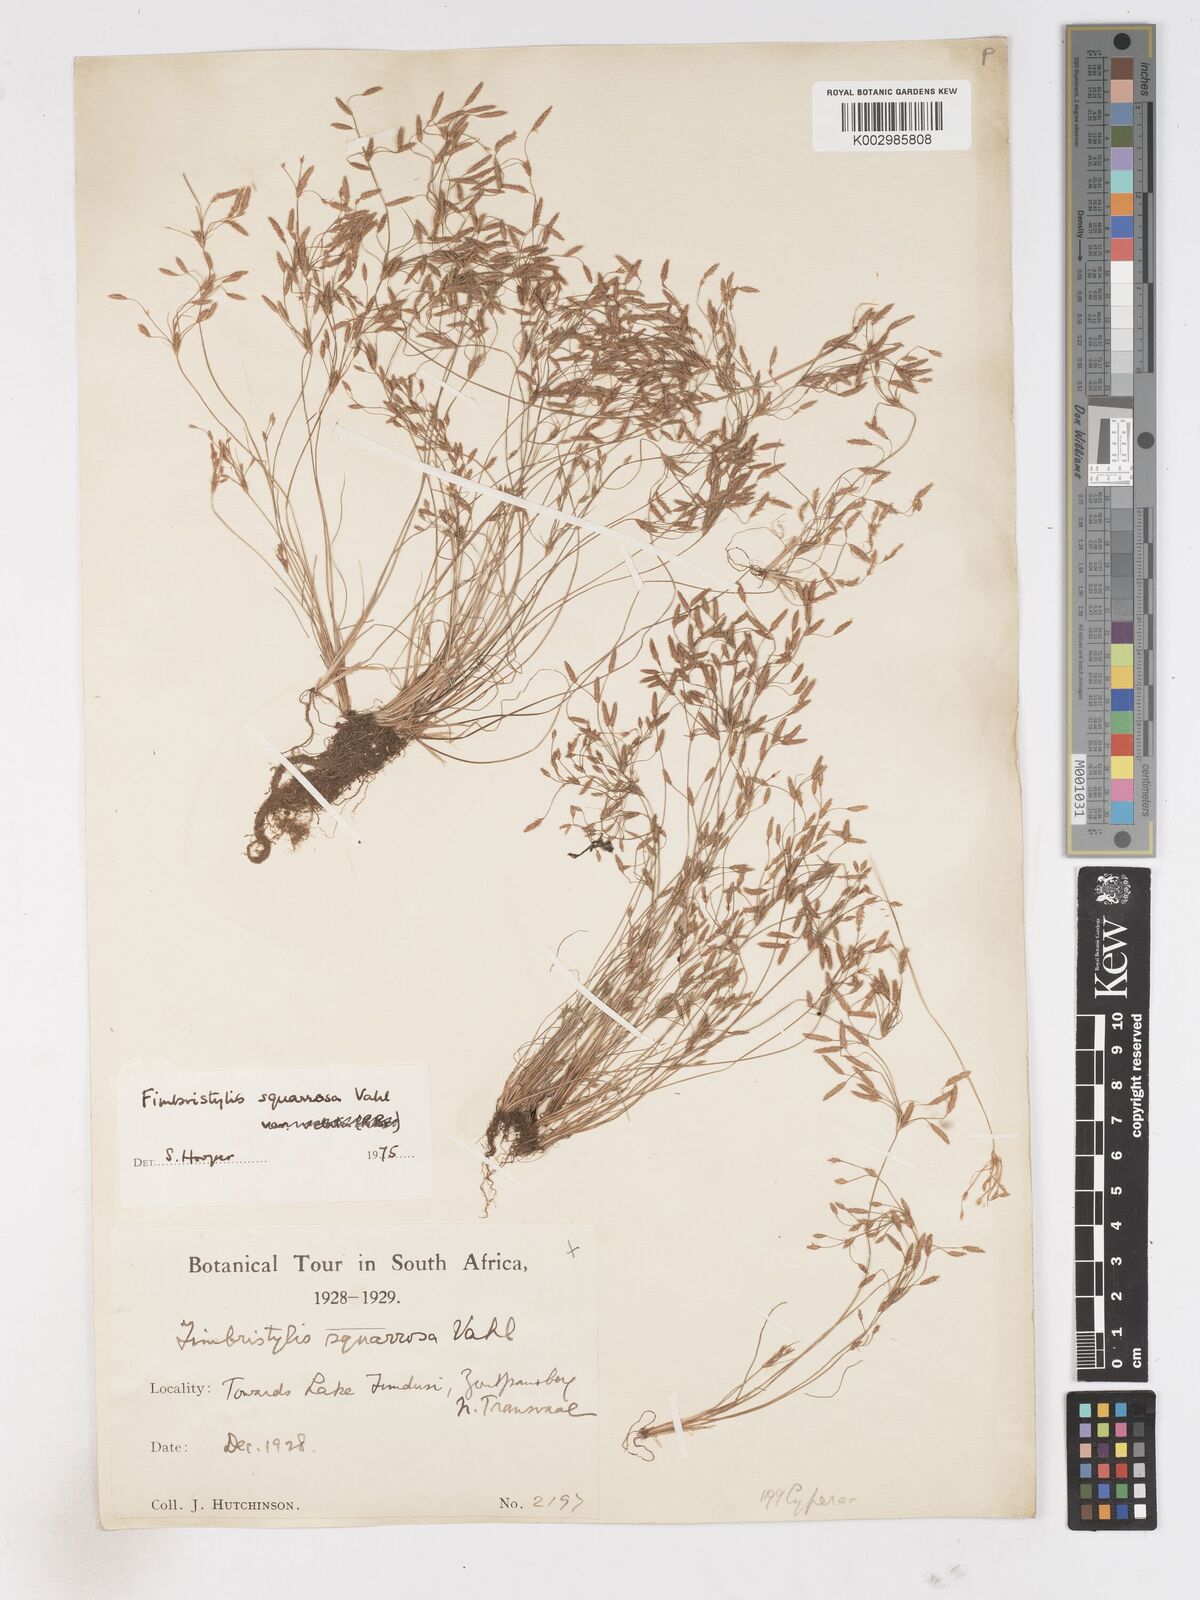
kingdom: Plantae
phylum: Tracheophyta
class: Liliopsida
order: Poales
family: Cyperaceae
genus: Fimbristylis
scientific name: Fimbristylis squarrosa
